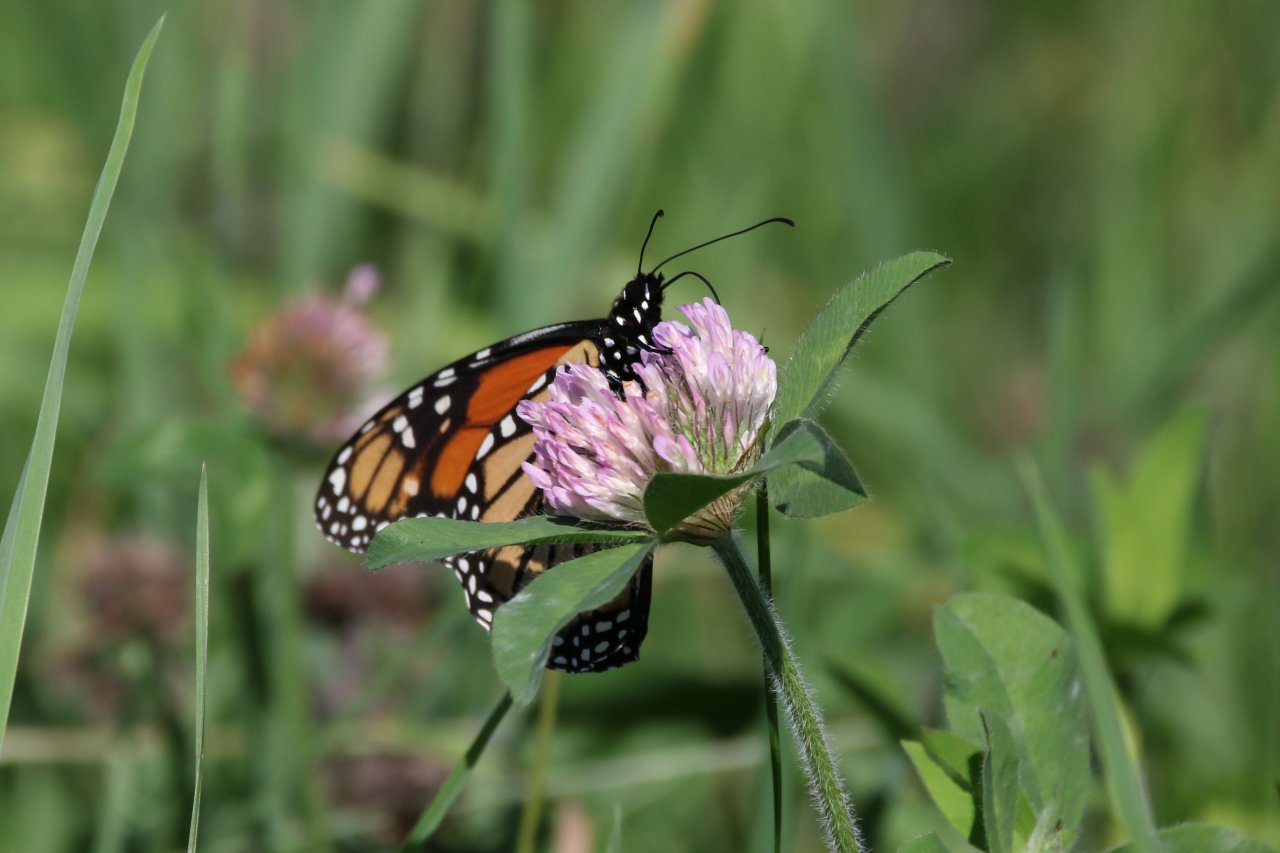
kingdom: Animalia
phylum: Arthropoda
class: Insecta
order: Lepidoptera
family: Nymphalidae
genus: Danaus
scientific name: Danaus plexippus
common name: Monarch
